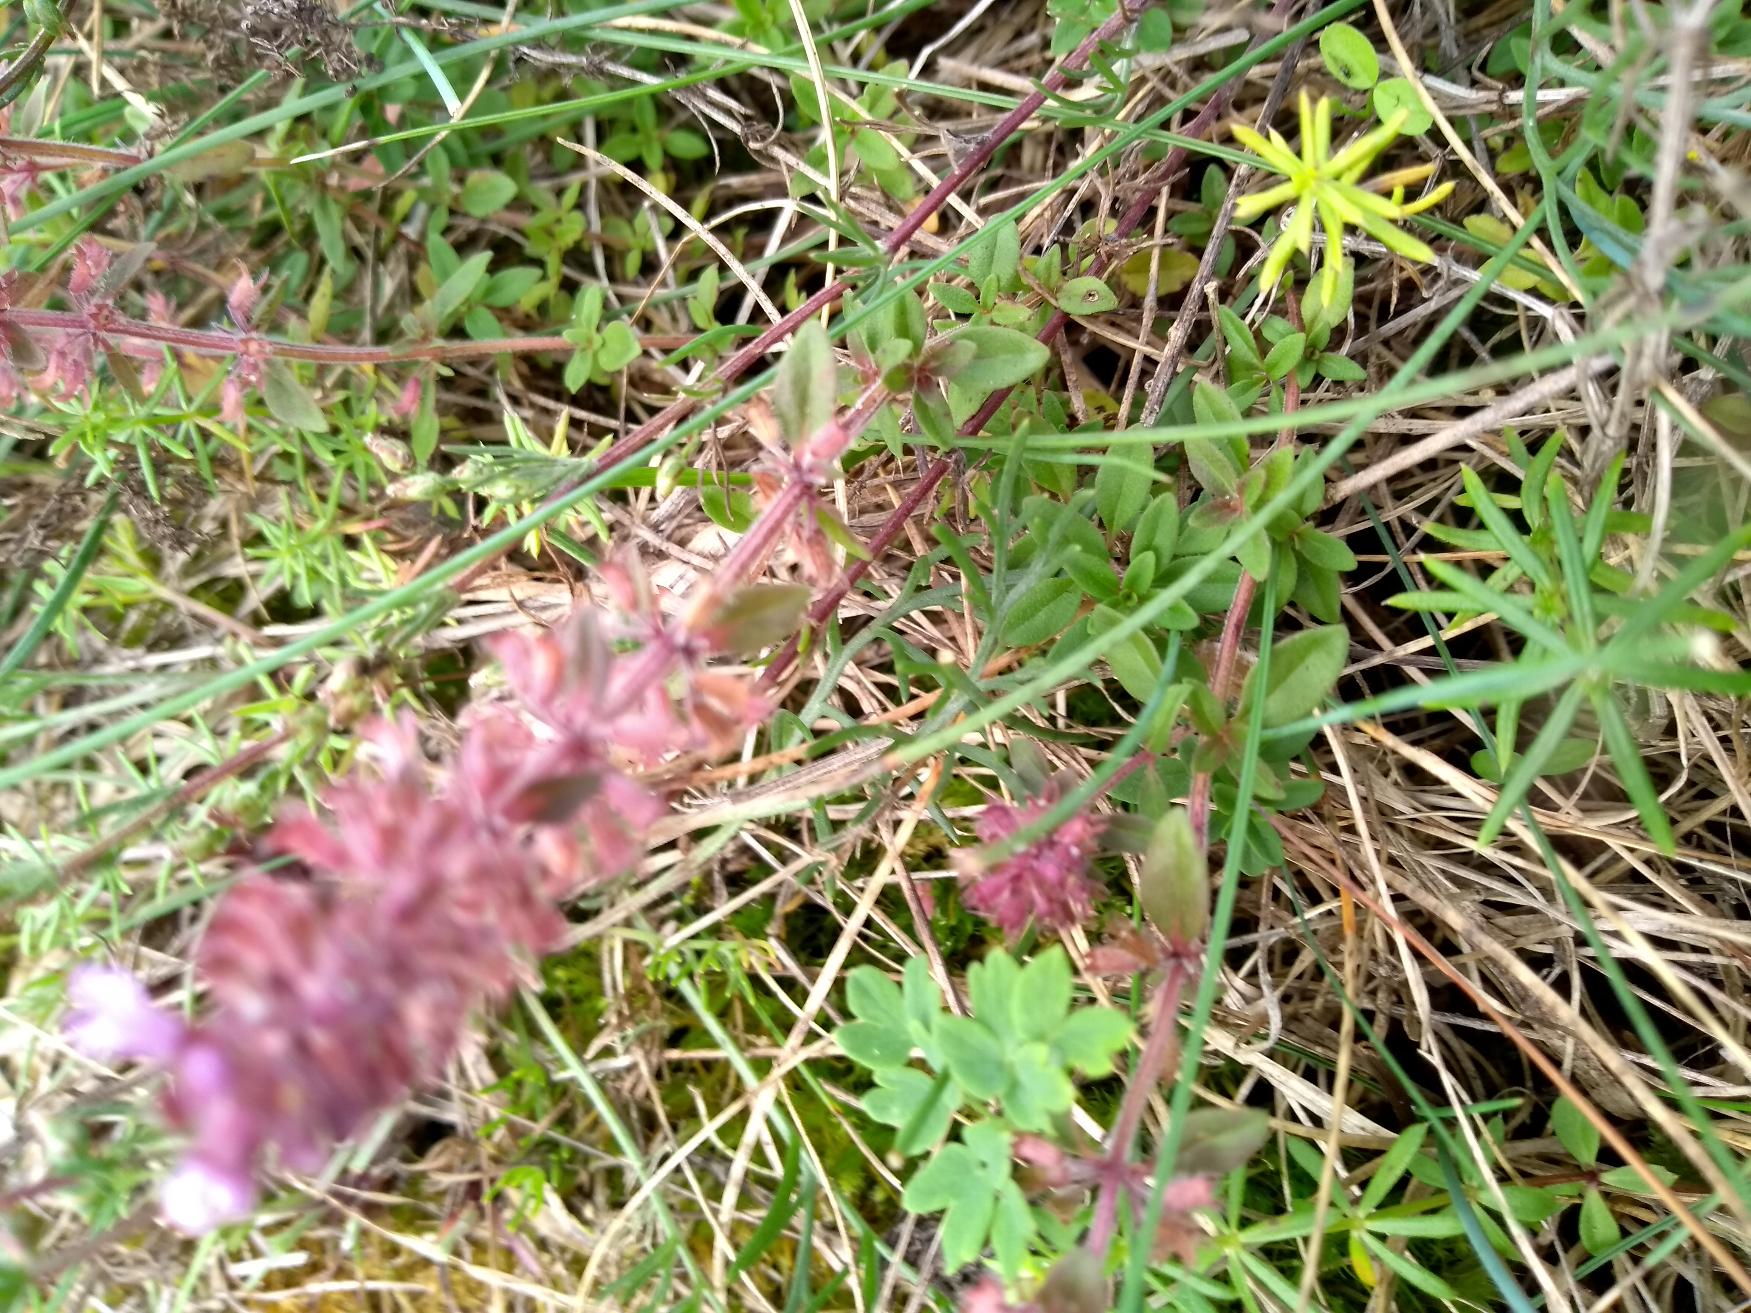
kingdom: Plantae
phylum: Tracheophyta
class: Magnoliopsida
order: Lamiales
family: Lamiaceae
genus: Thymus
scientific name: Thymus pulegioides
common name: Bredbladet timian
